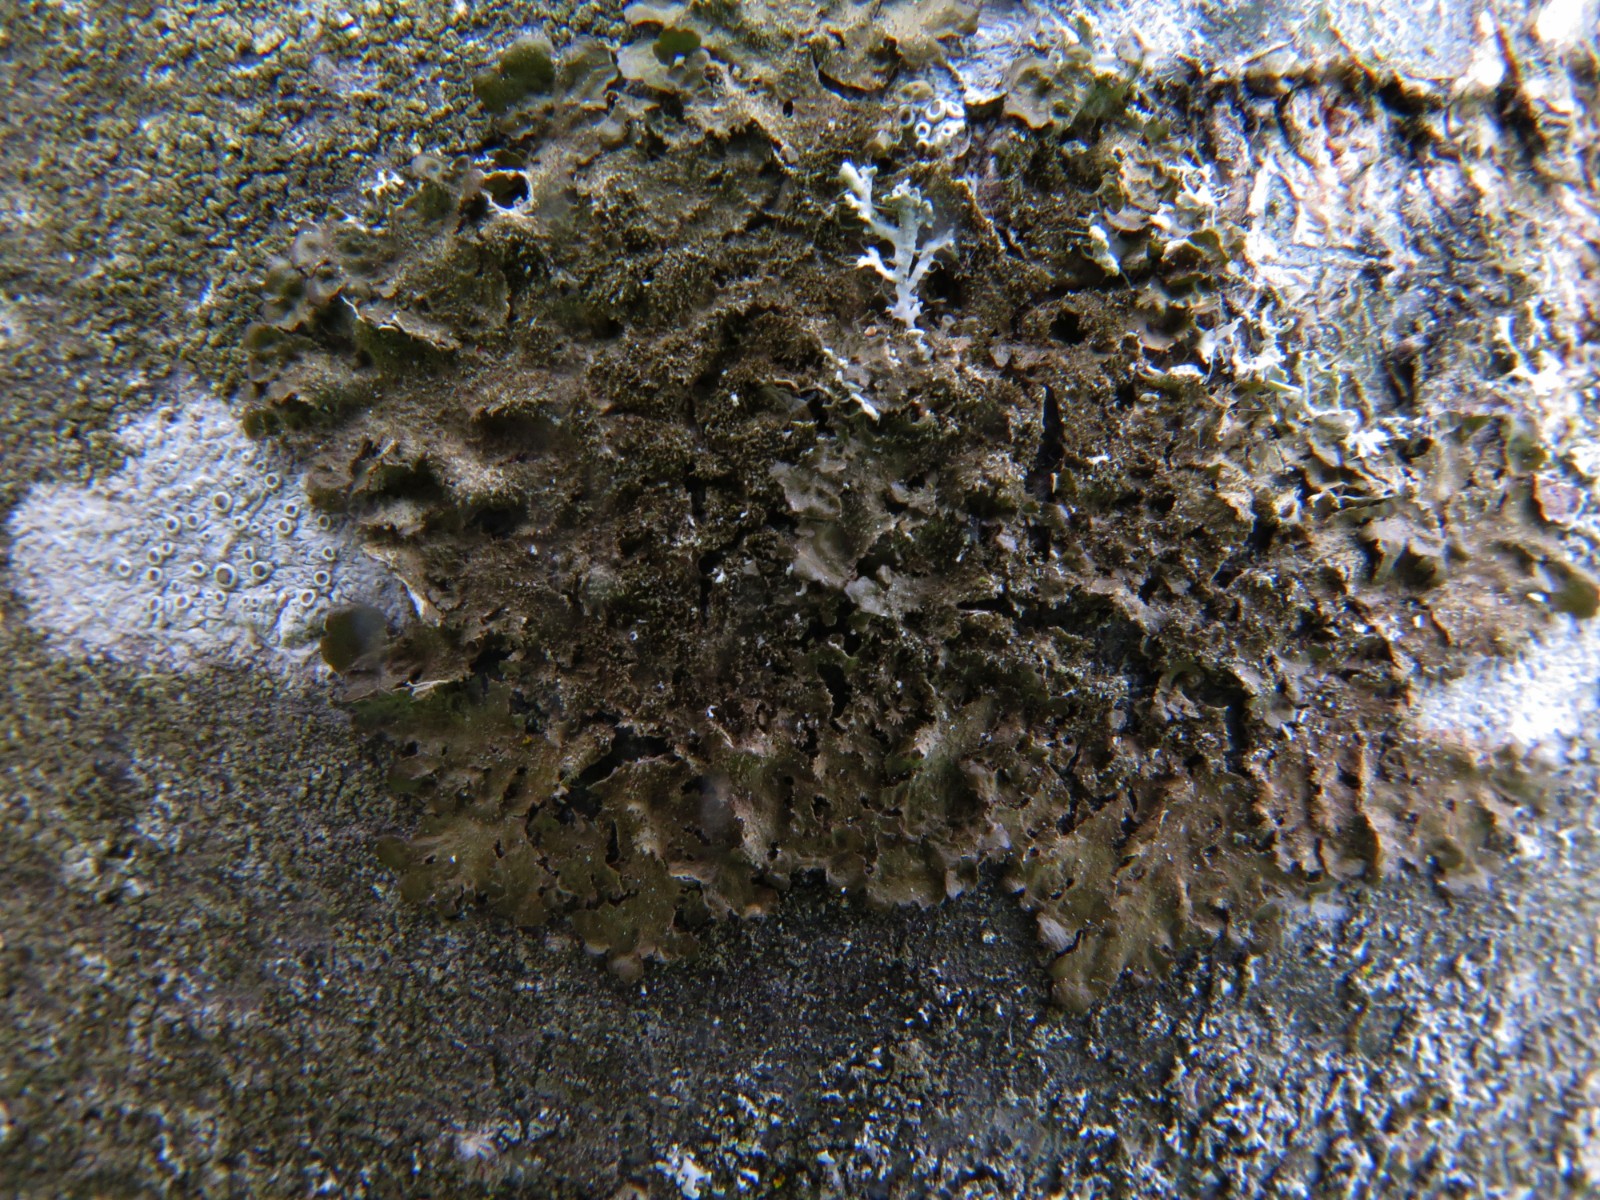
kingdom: Fungi
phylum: Ascomycota
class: Lecanoromycetes
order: Lecanorales
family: Parmeliaceae
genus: Melanelixia
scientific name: Melanelixia subaurifera
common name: guldpudret skållav
